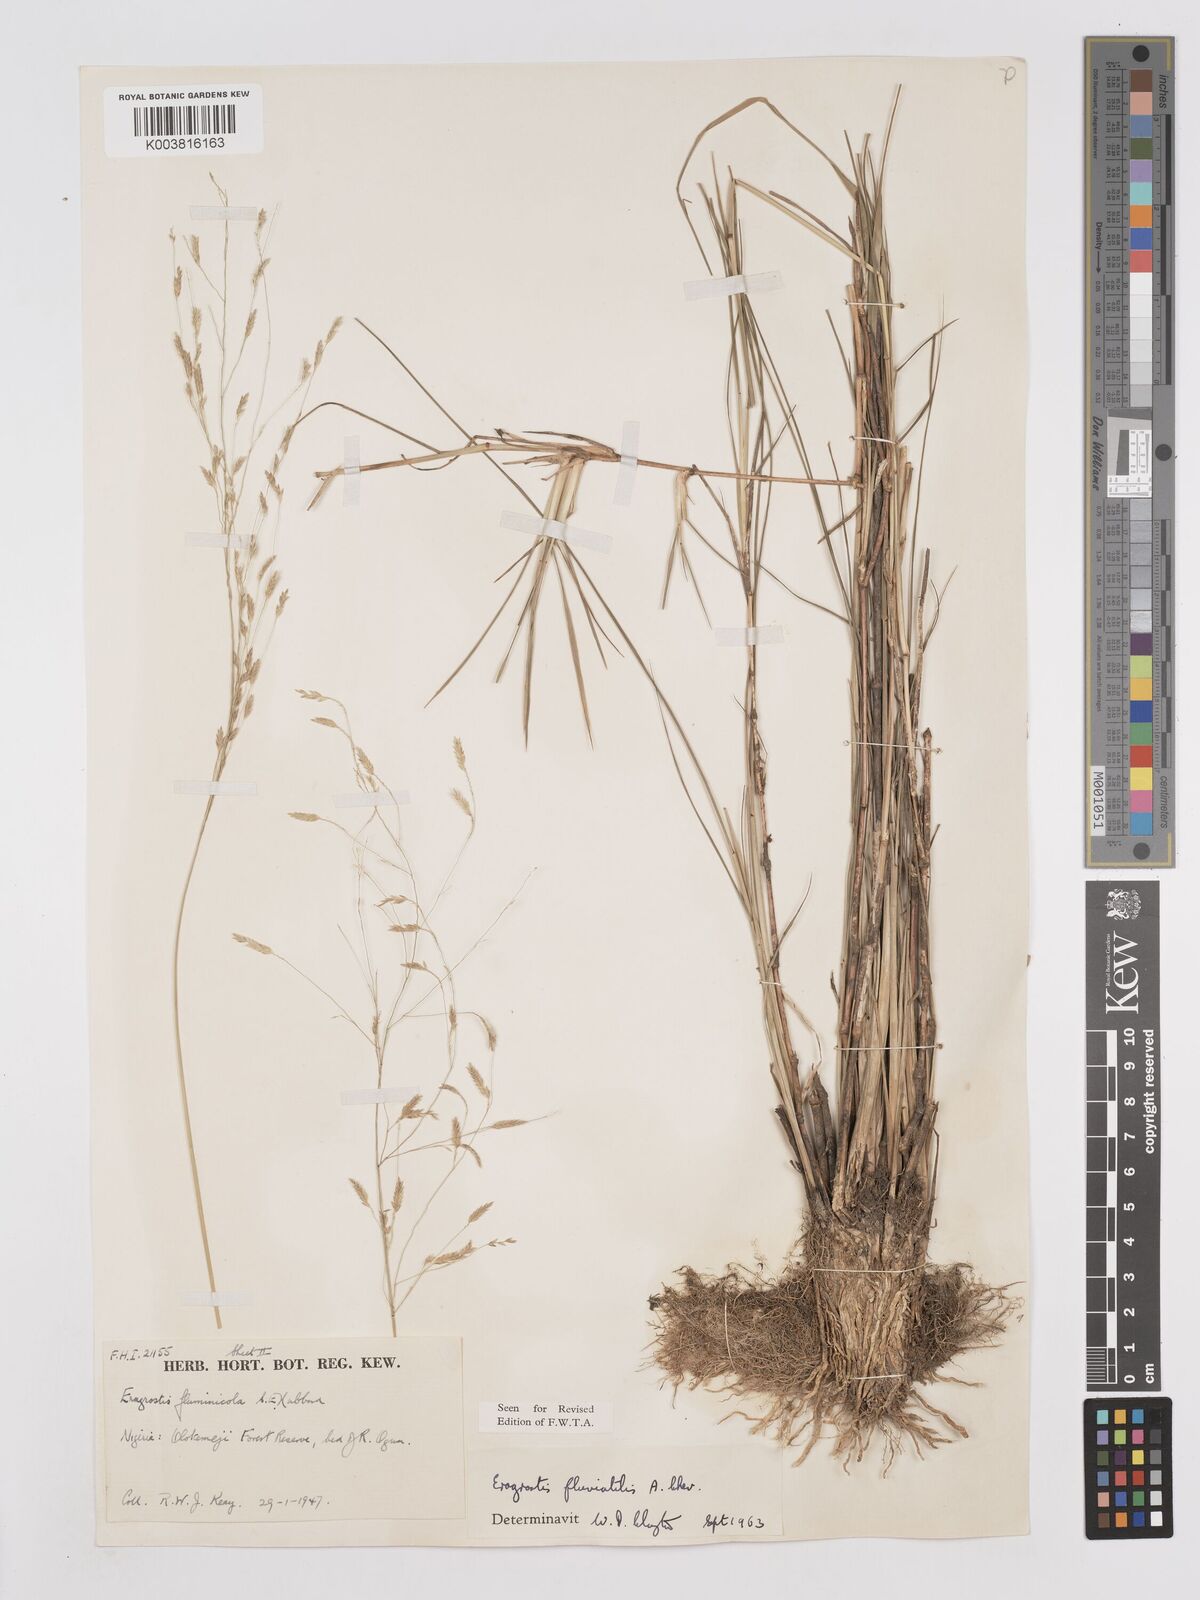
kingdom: Plantae
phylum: Tracheophyta
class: Liliopsida
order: Poales
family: Poaceae
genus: Eragrostis
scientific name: Eragrostis barteri
